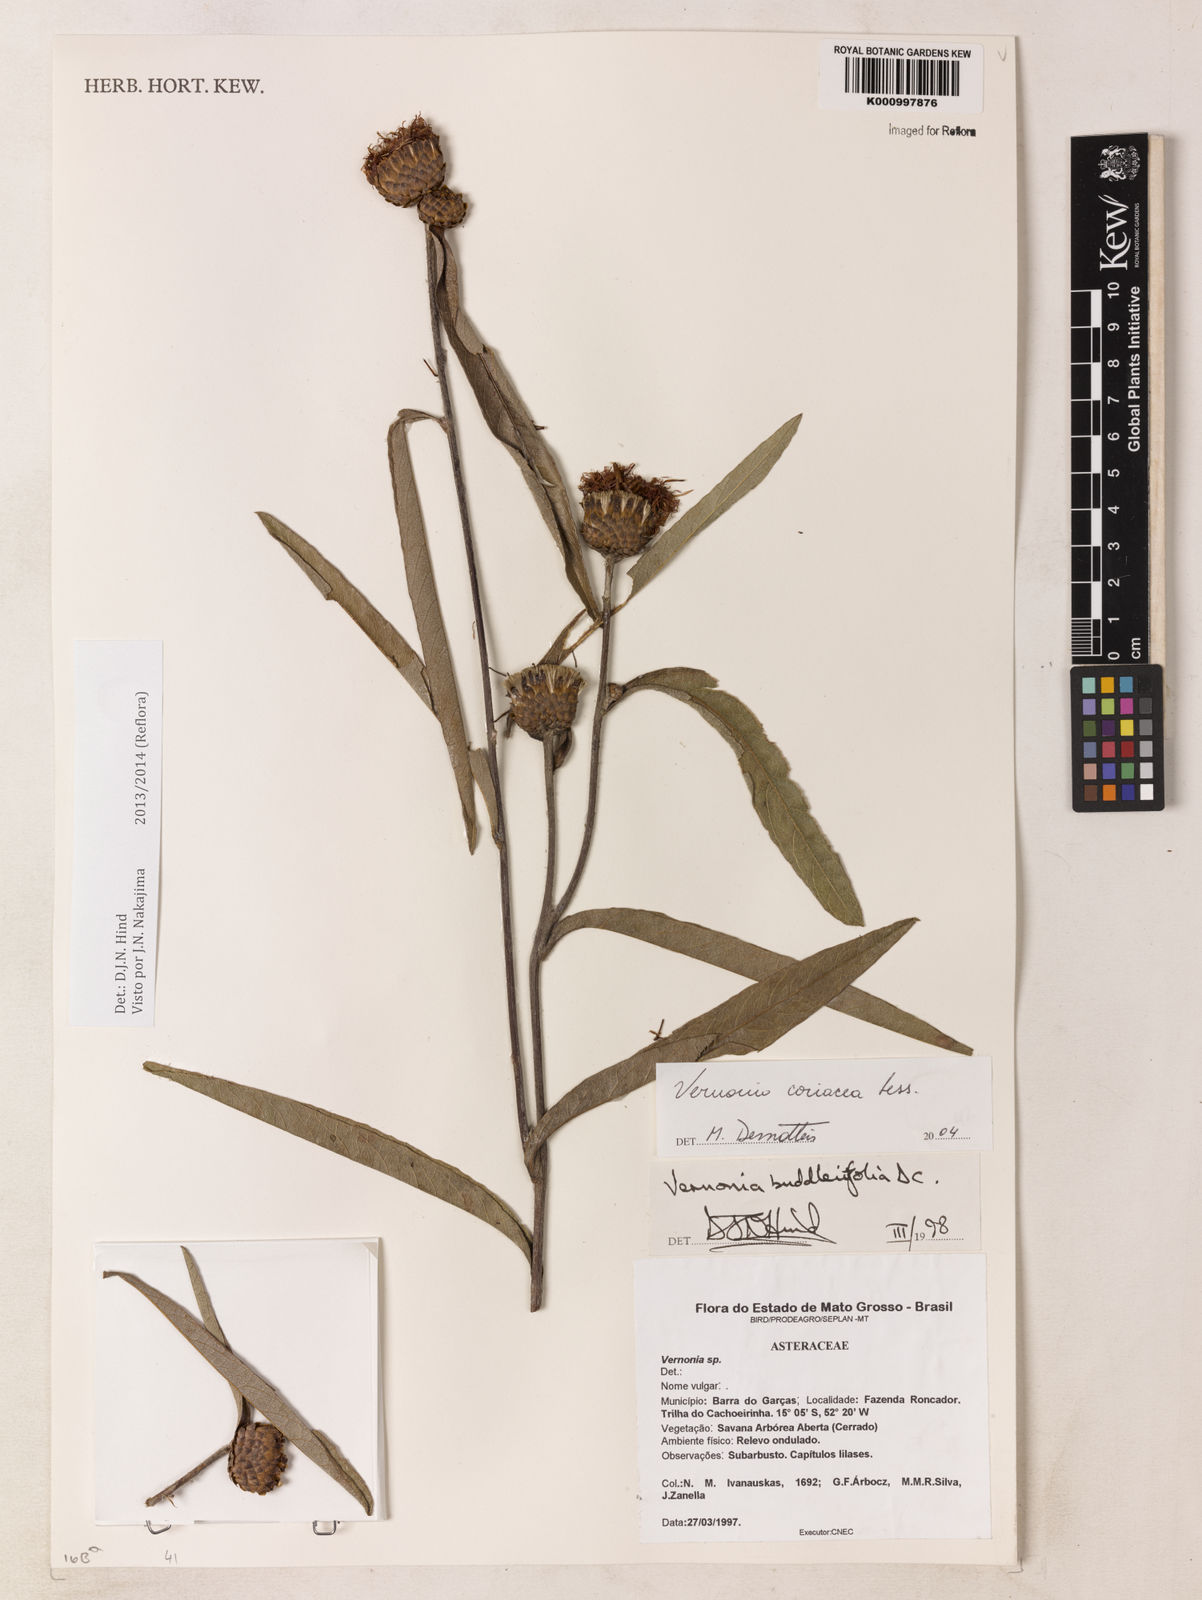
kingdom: Plantae
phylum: Tracheophyta
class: Magnoliopsida
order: Asterales
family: Asteraceae
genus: Lessingianthus
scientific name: Lessingianthus coriaceus
